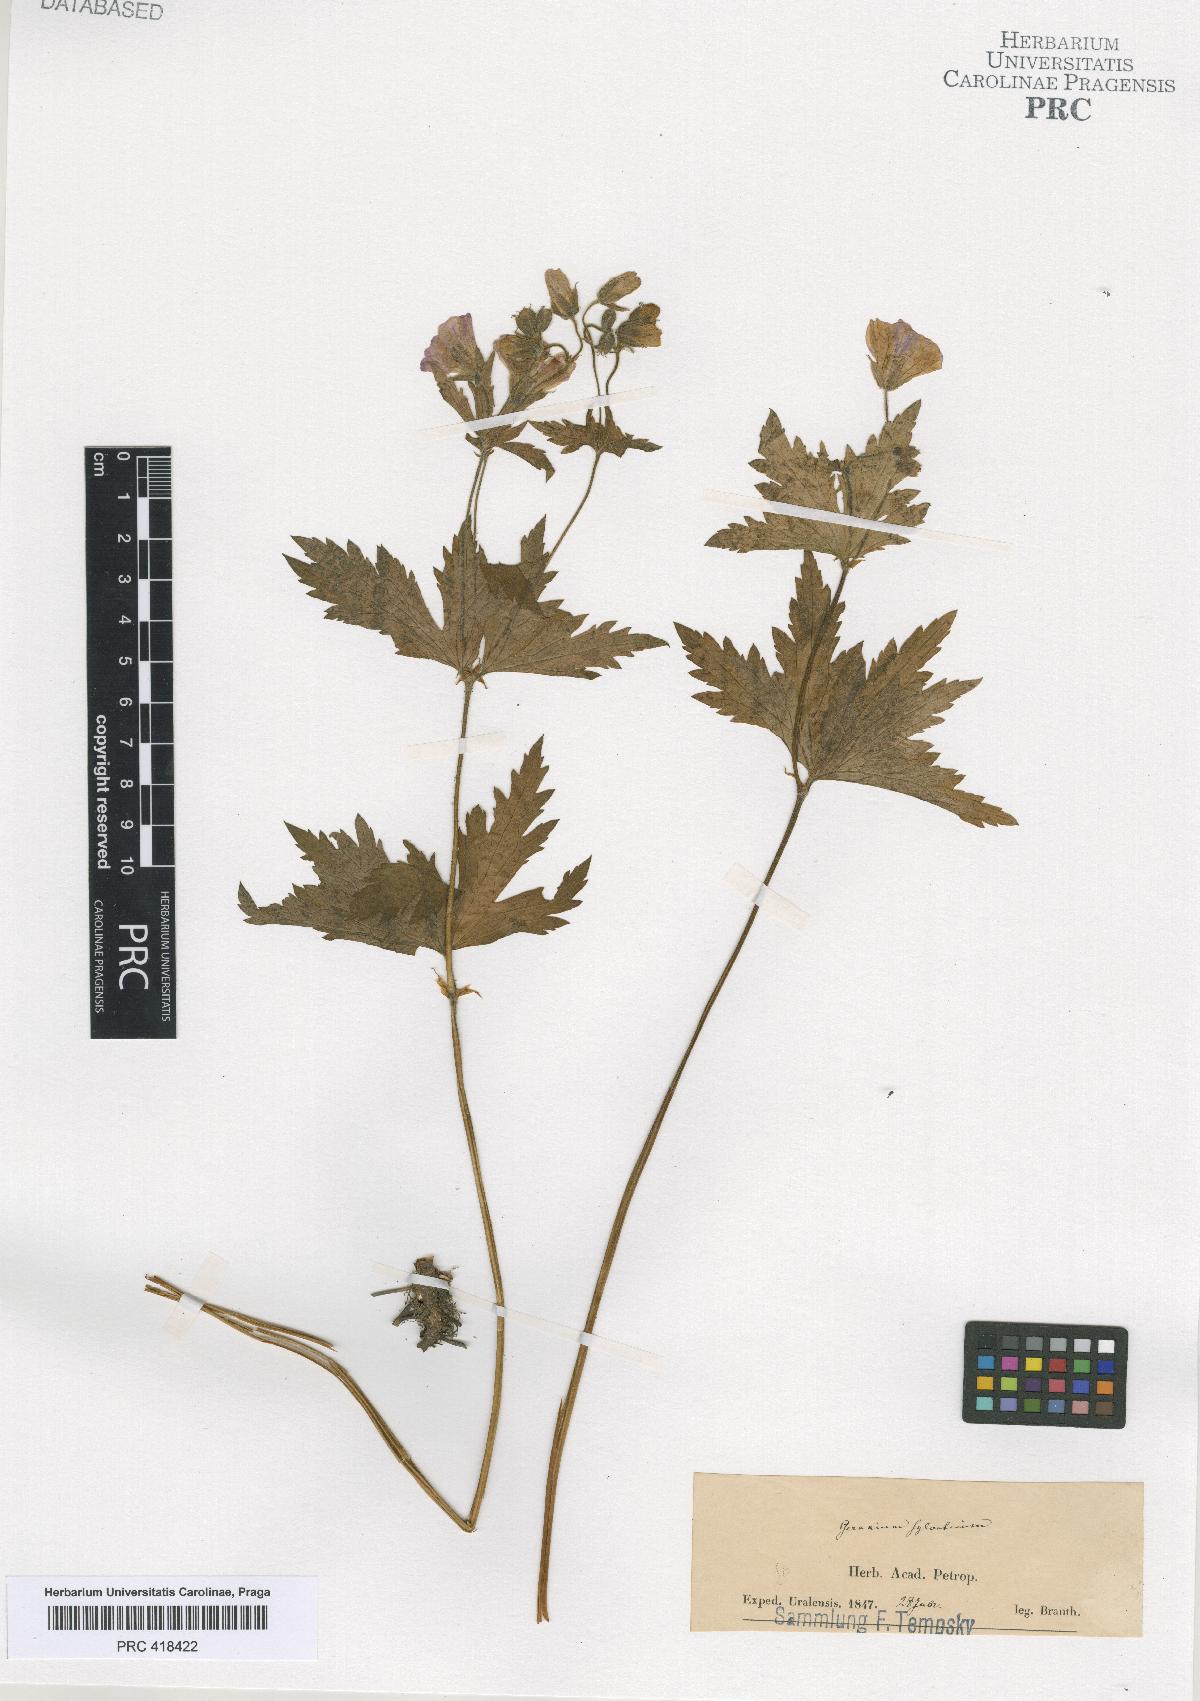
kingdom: Plantae
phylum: Tracheophyta
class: Magnoliopsida
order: Geraniales
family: Geraniaceae
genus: Geranium
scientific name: Geranium sylvaticum
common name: Wood crane's-bill
